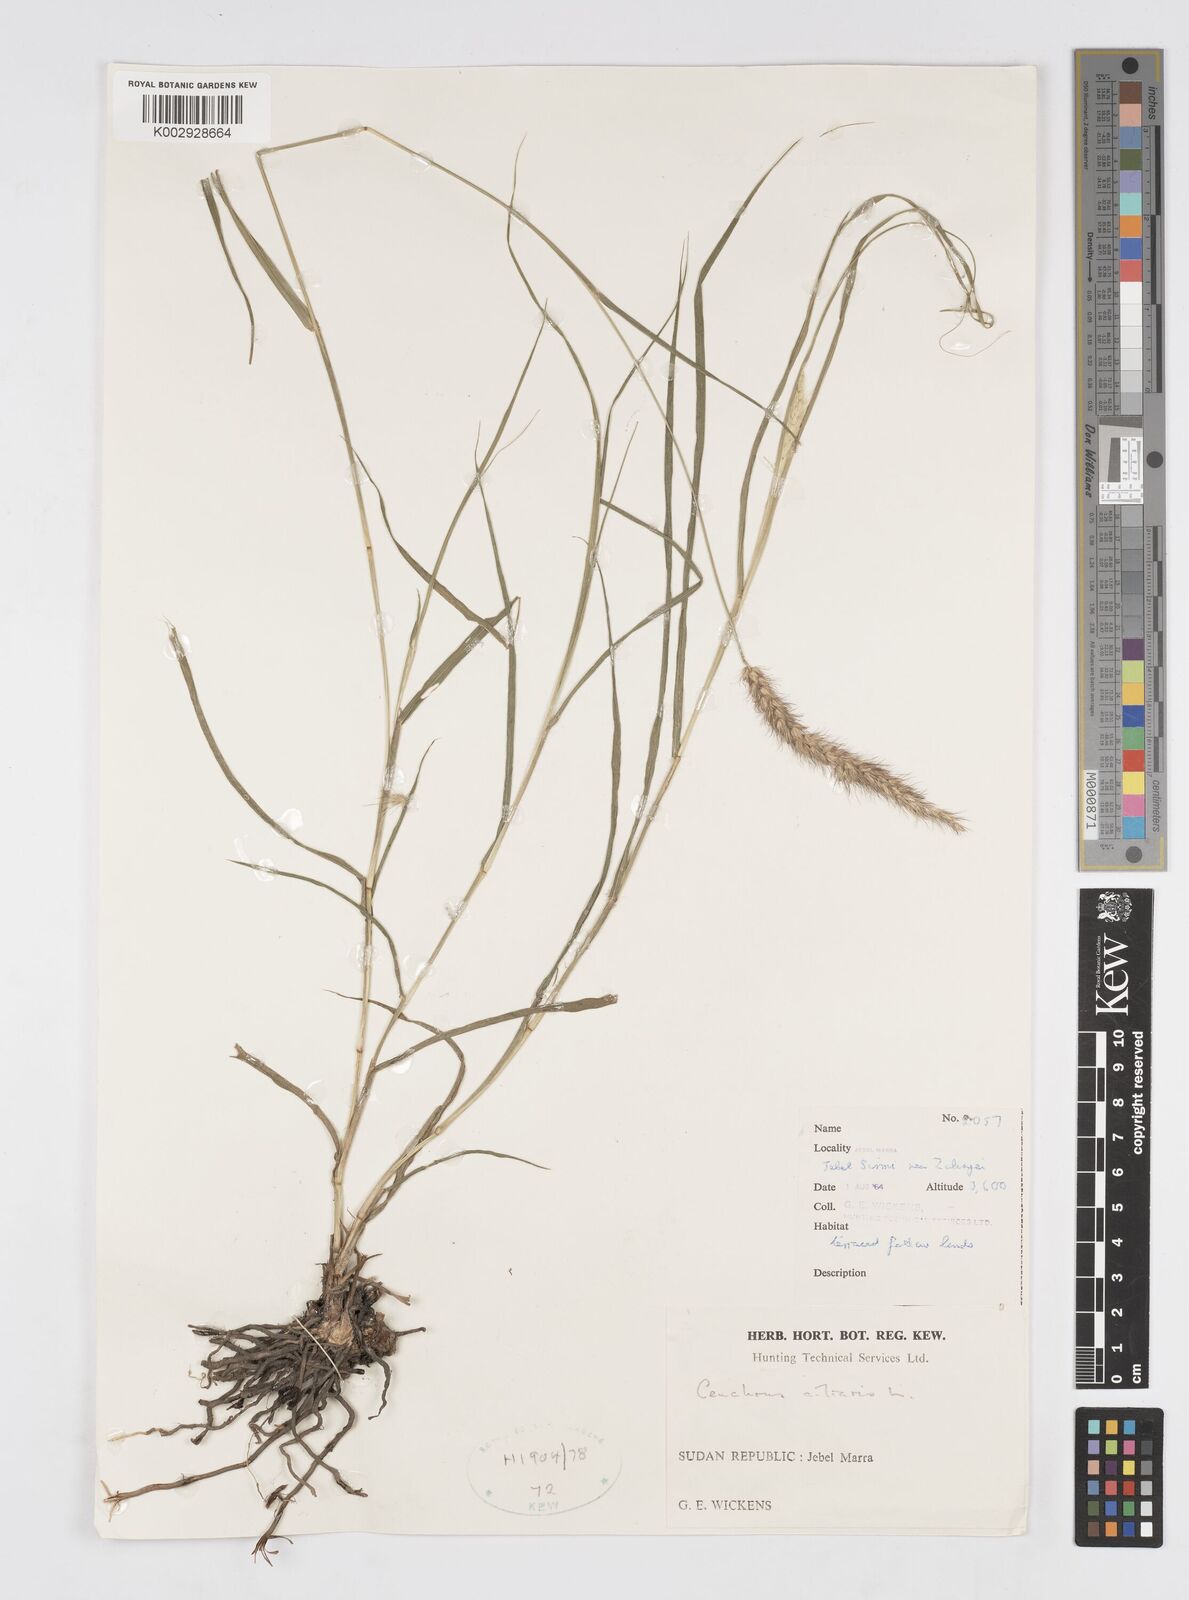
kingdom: Plantae
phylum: Tracheophyta
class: Liliopsida
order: Poales
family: Poaceae
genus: Cenchrus
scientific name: Cenchrus ciliaris
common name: Buffelgrass
